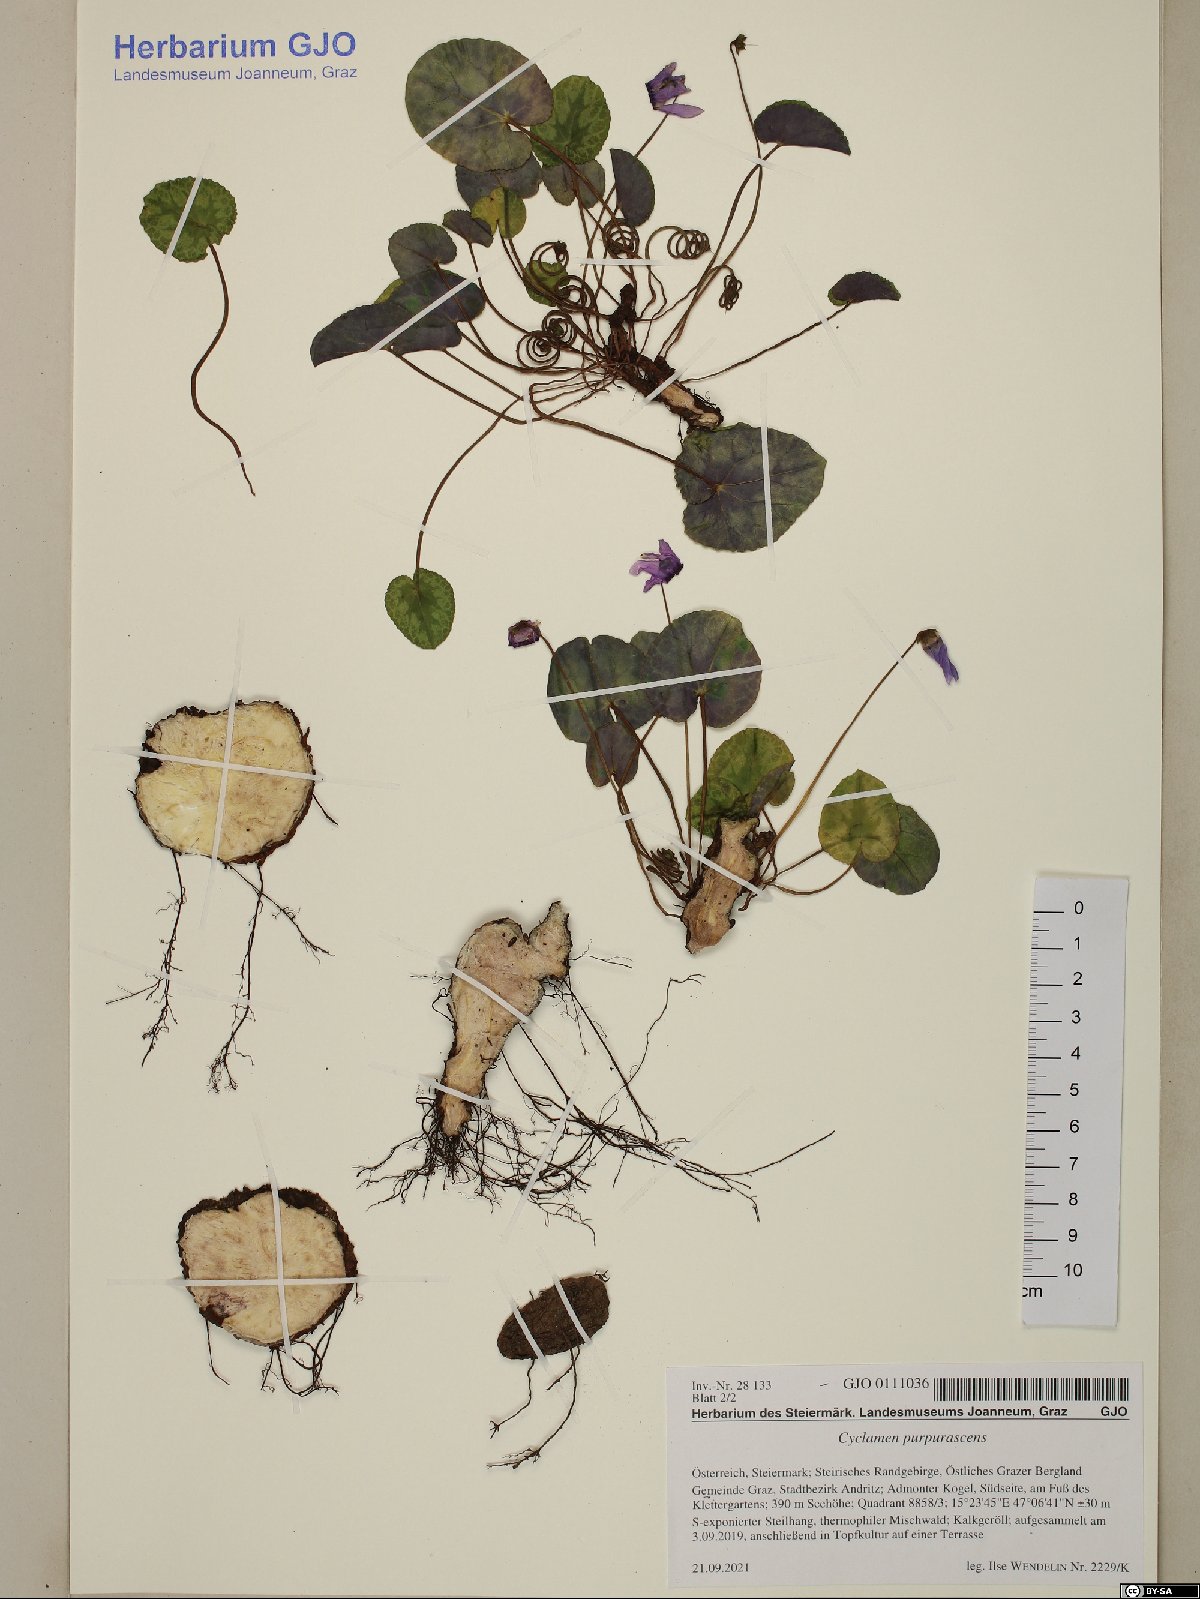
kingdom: Plantae
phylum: Tracheophyta
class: Magnoliopsida
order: Ericales
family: Primulaceae
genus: Cyclamen
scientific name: Cyclamen purpurascens
